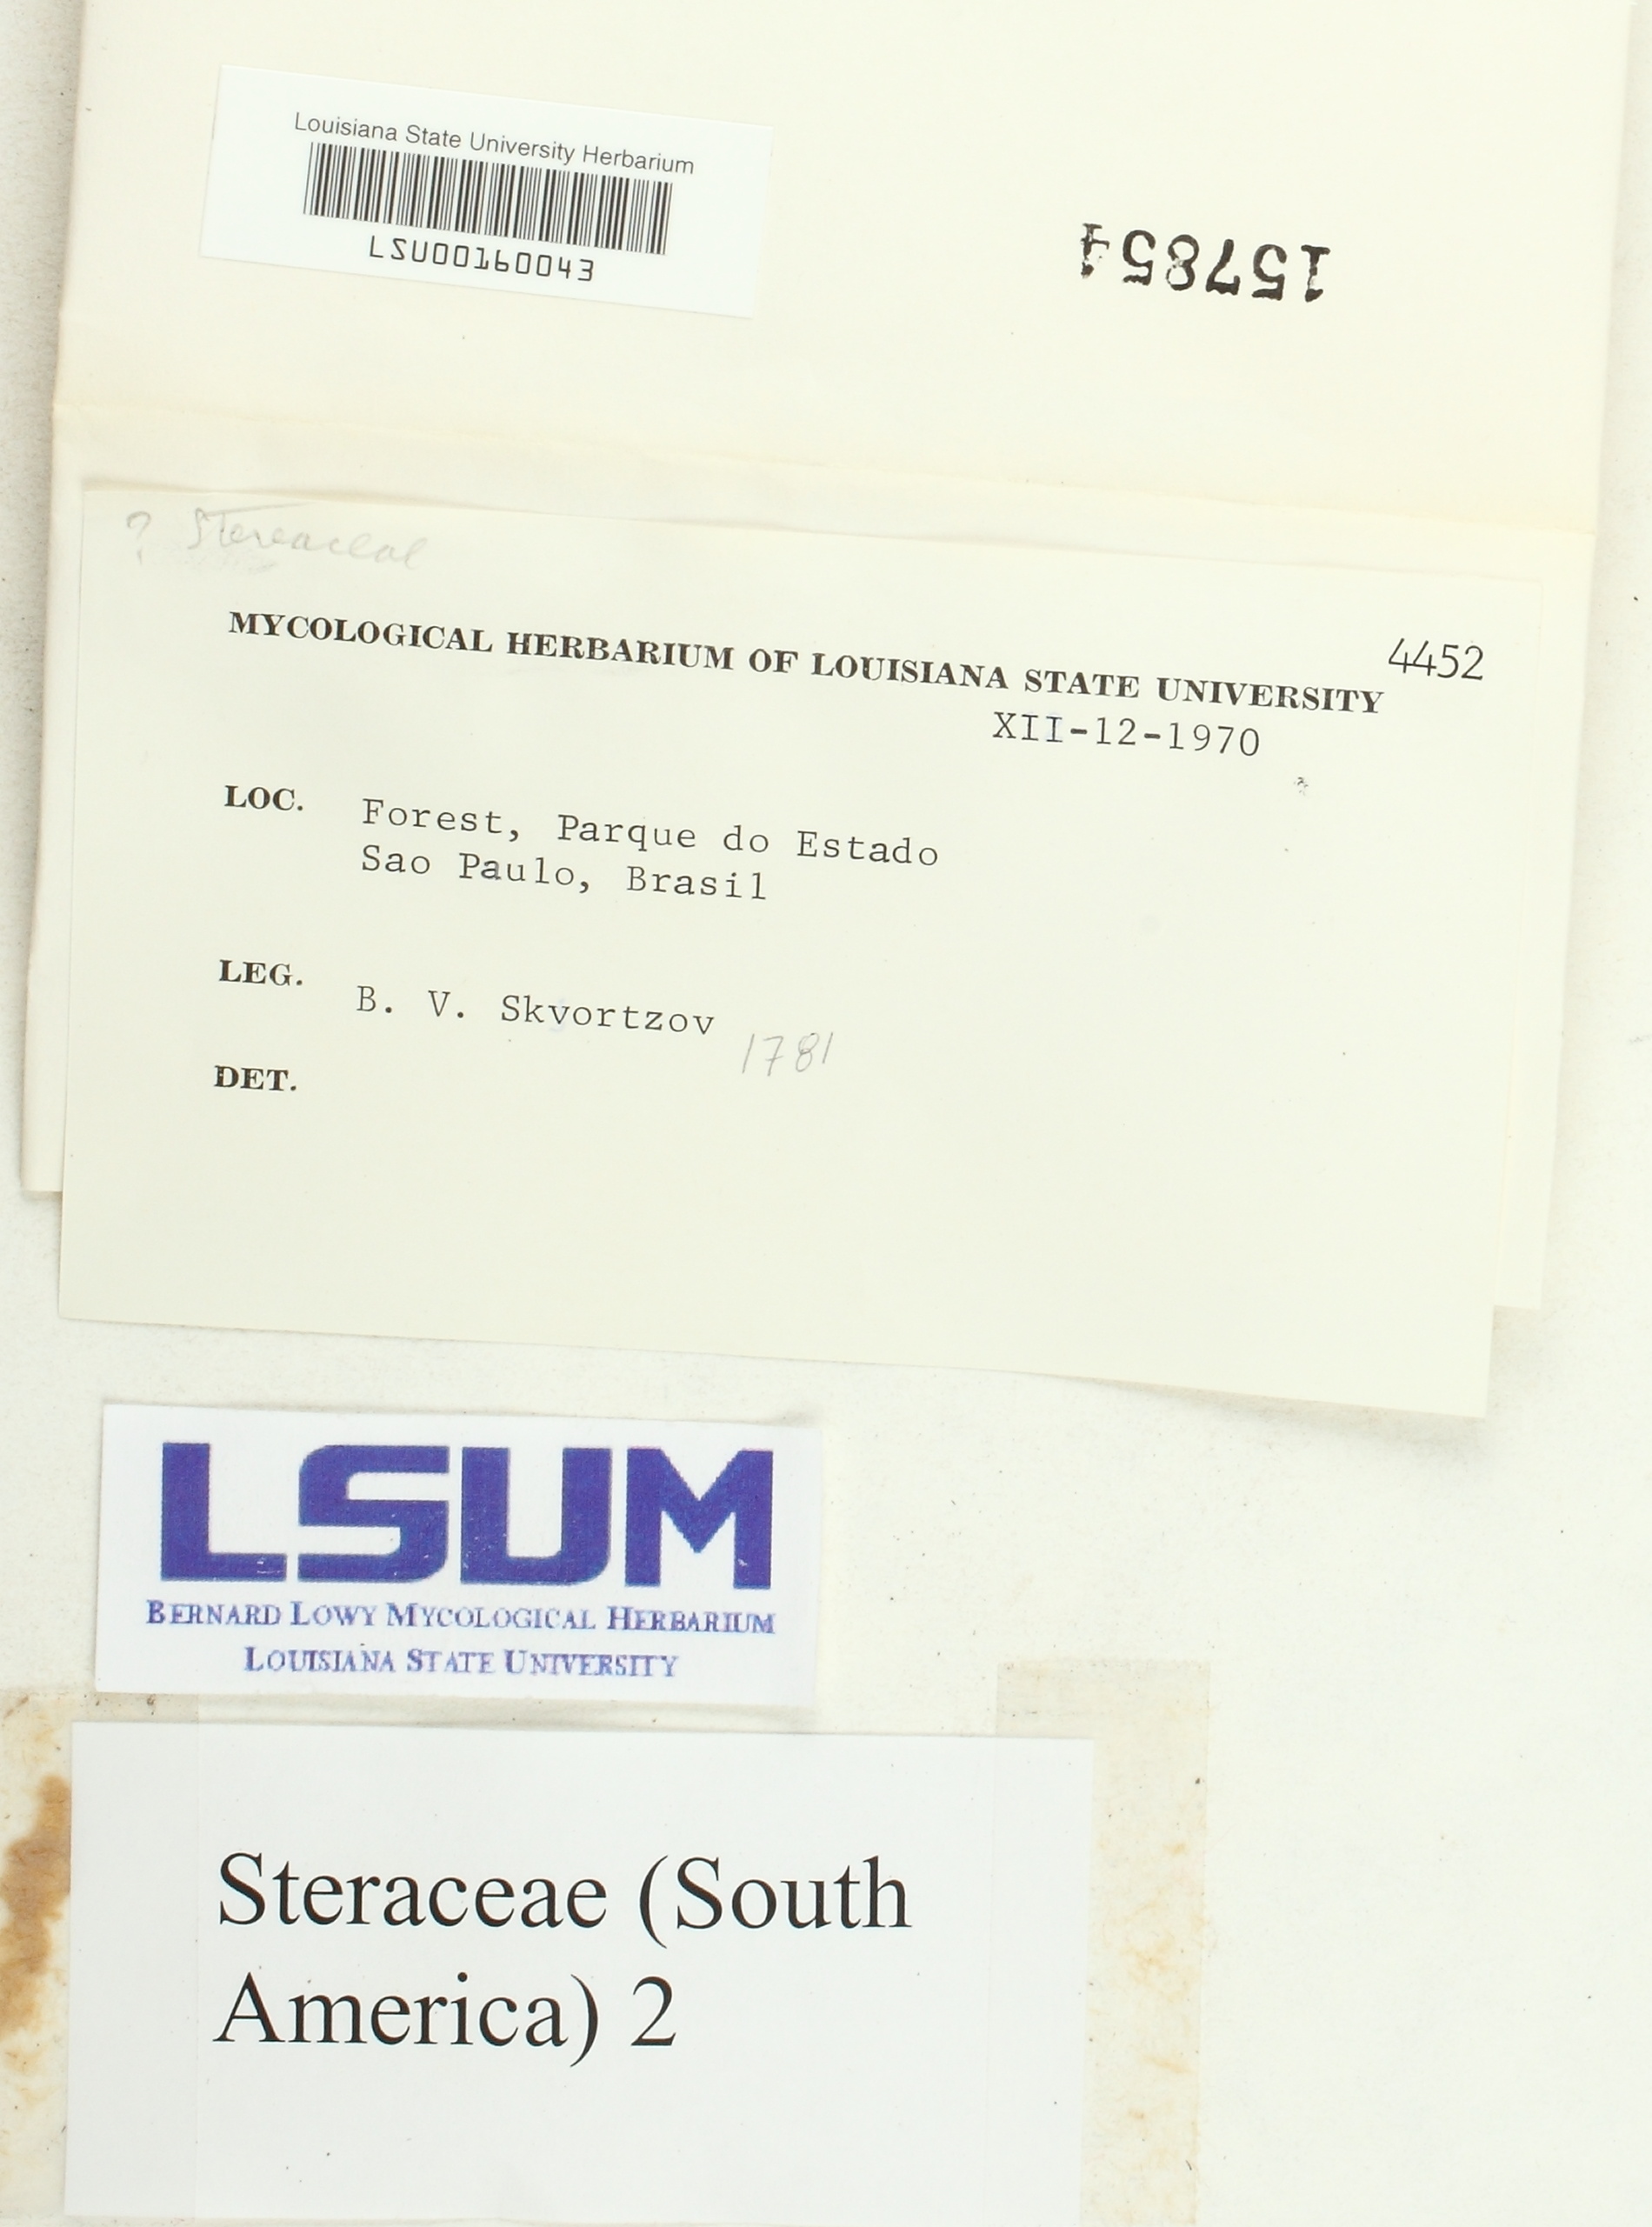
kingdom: Fungi
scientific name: Fungi
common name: Fungi
